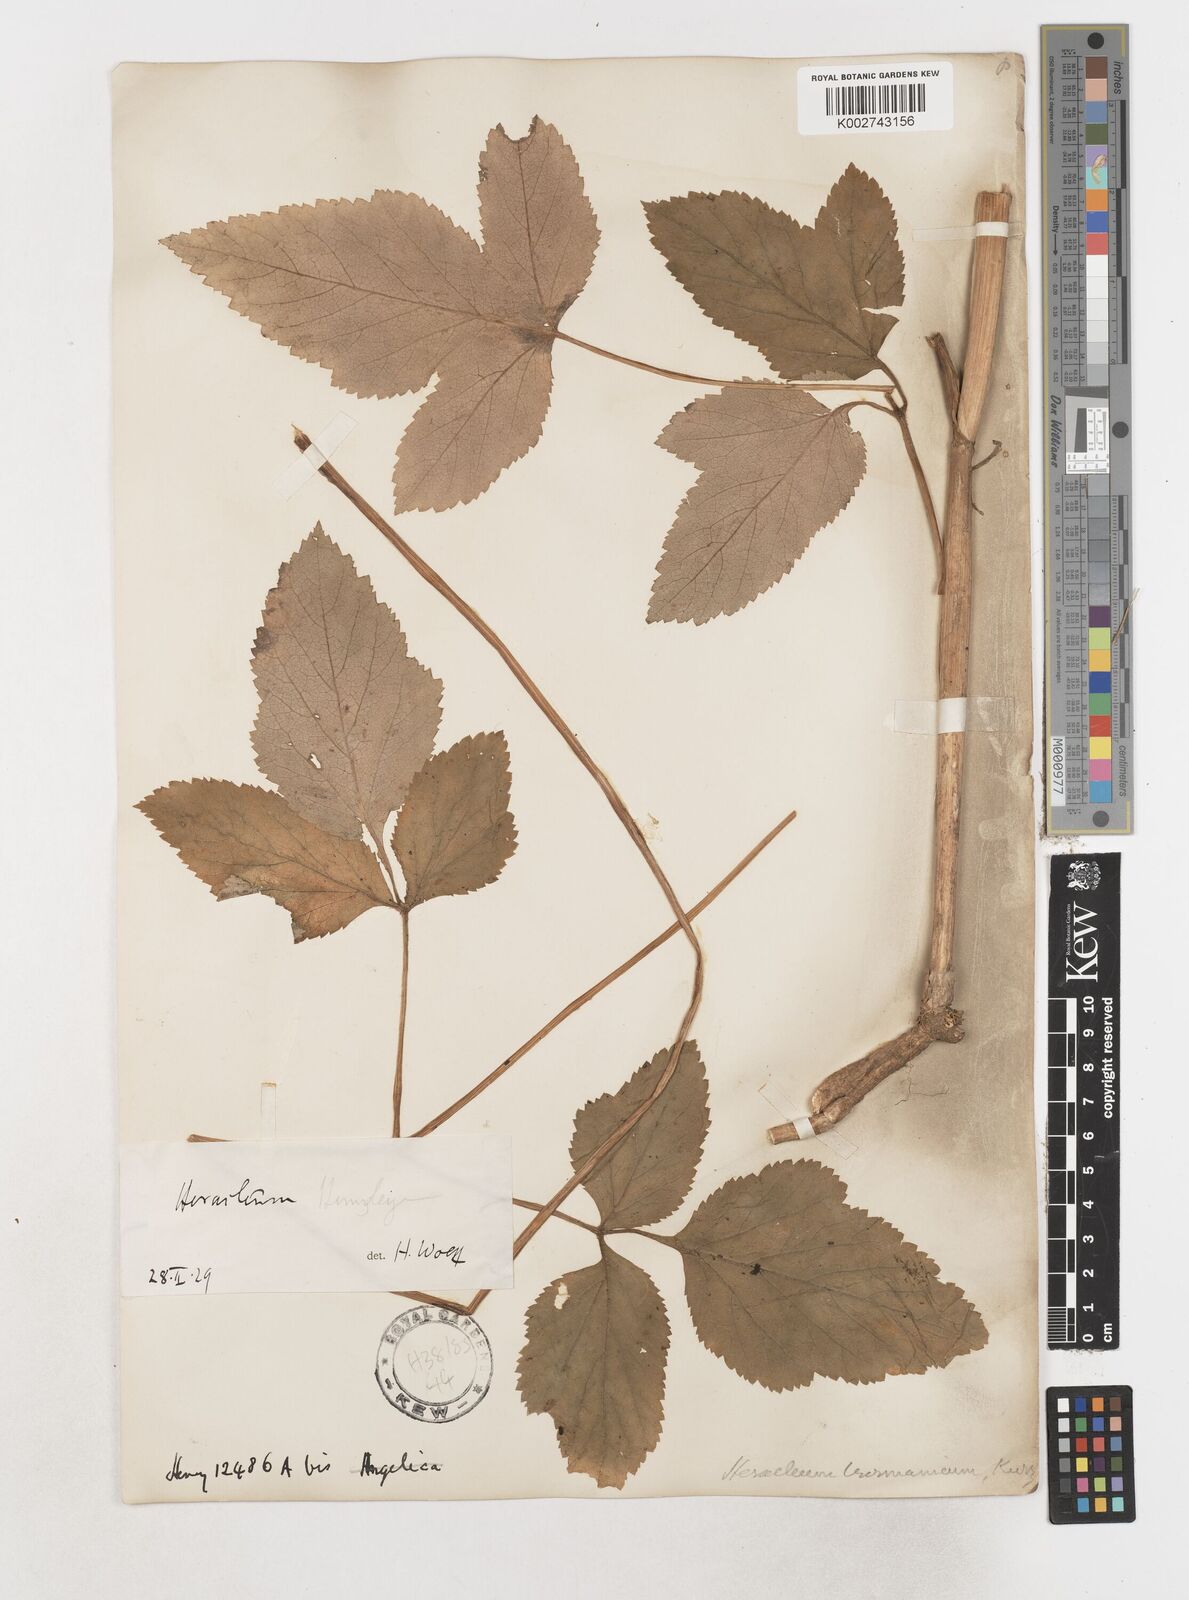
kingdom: Plantae
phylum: Tracheophyta
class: Magnoliopsida
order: Apiales
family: Apiaceae
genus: Tetrataenium
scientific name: Tetrataenium birmanicum
